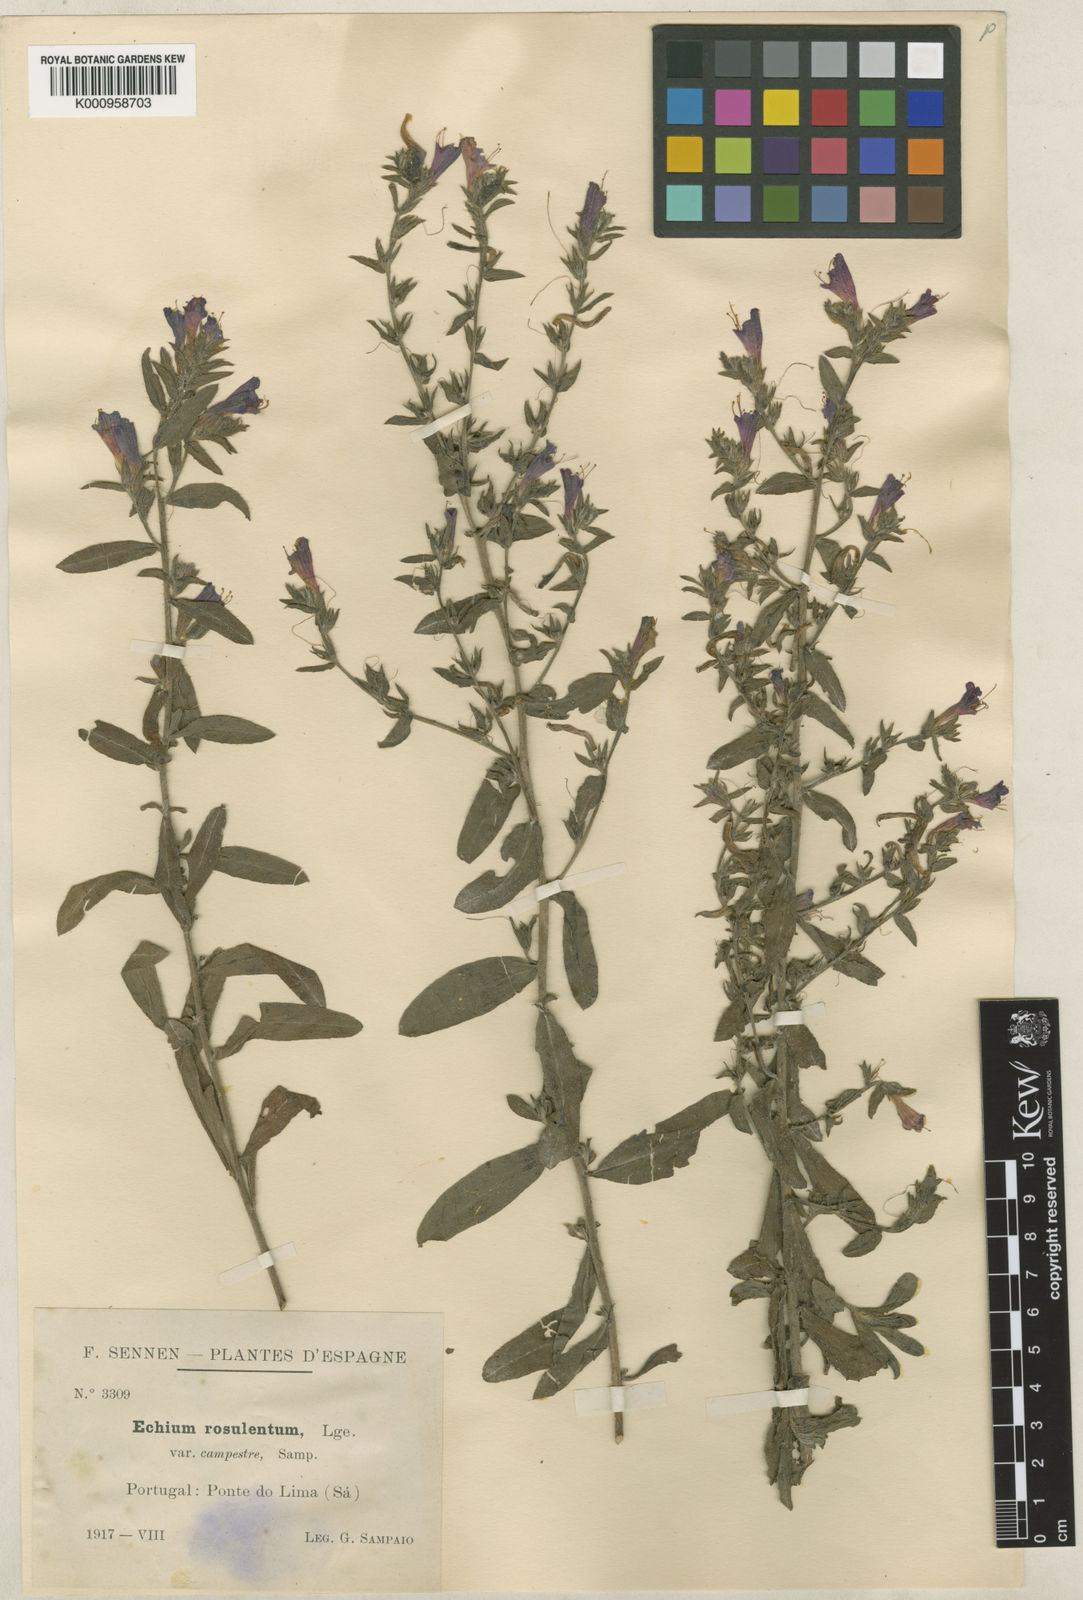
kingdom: Plantae
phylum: Tracheophyta
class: Magnoliopsida
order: Boraginales
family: Boraginaceae
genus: Echium
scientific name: Echium rosulatum
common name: Lax viper's-bugloss
